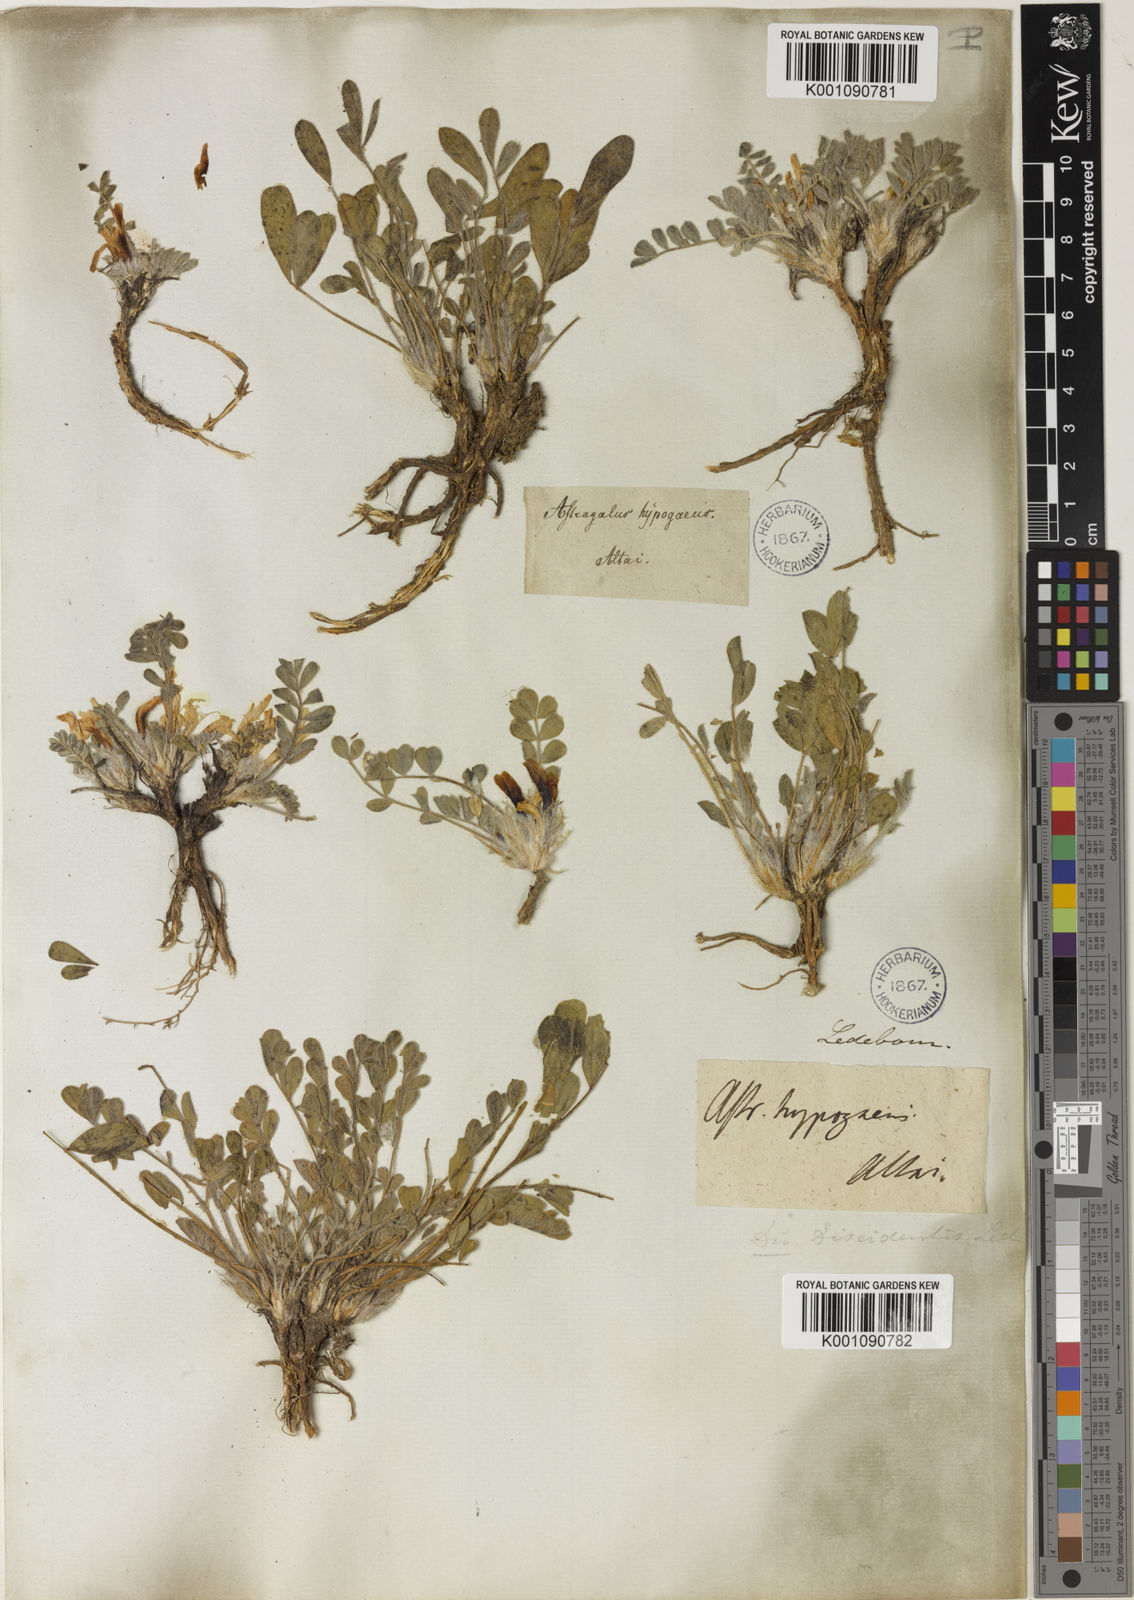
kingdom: Plantae
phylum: Tracheophyta
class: Magnoliopsida
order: Fabales
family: Fabaceae
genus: Astragalus
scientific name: Astragalus
